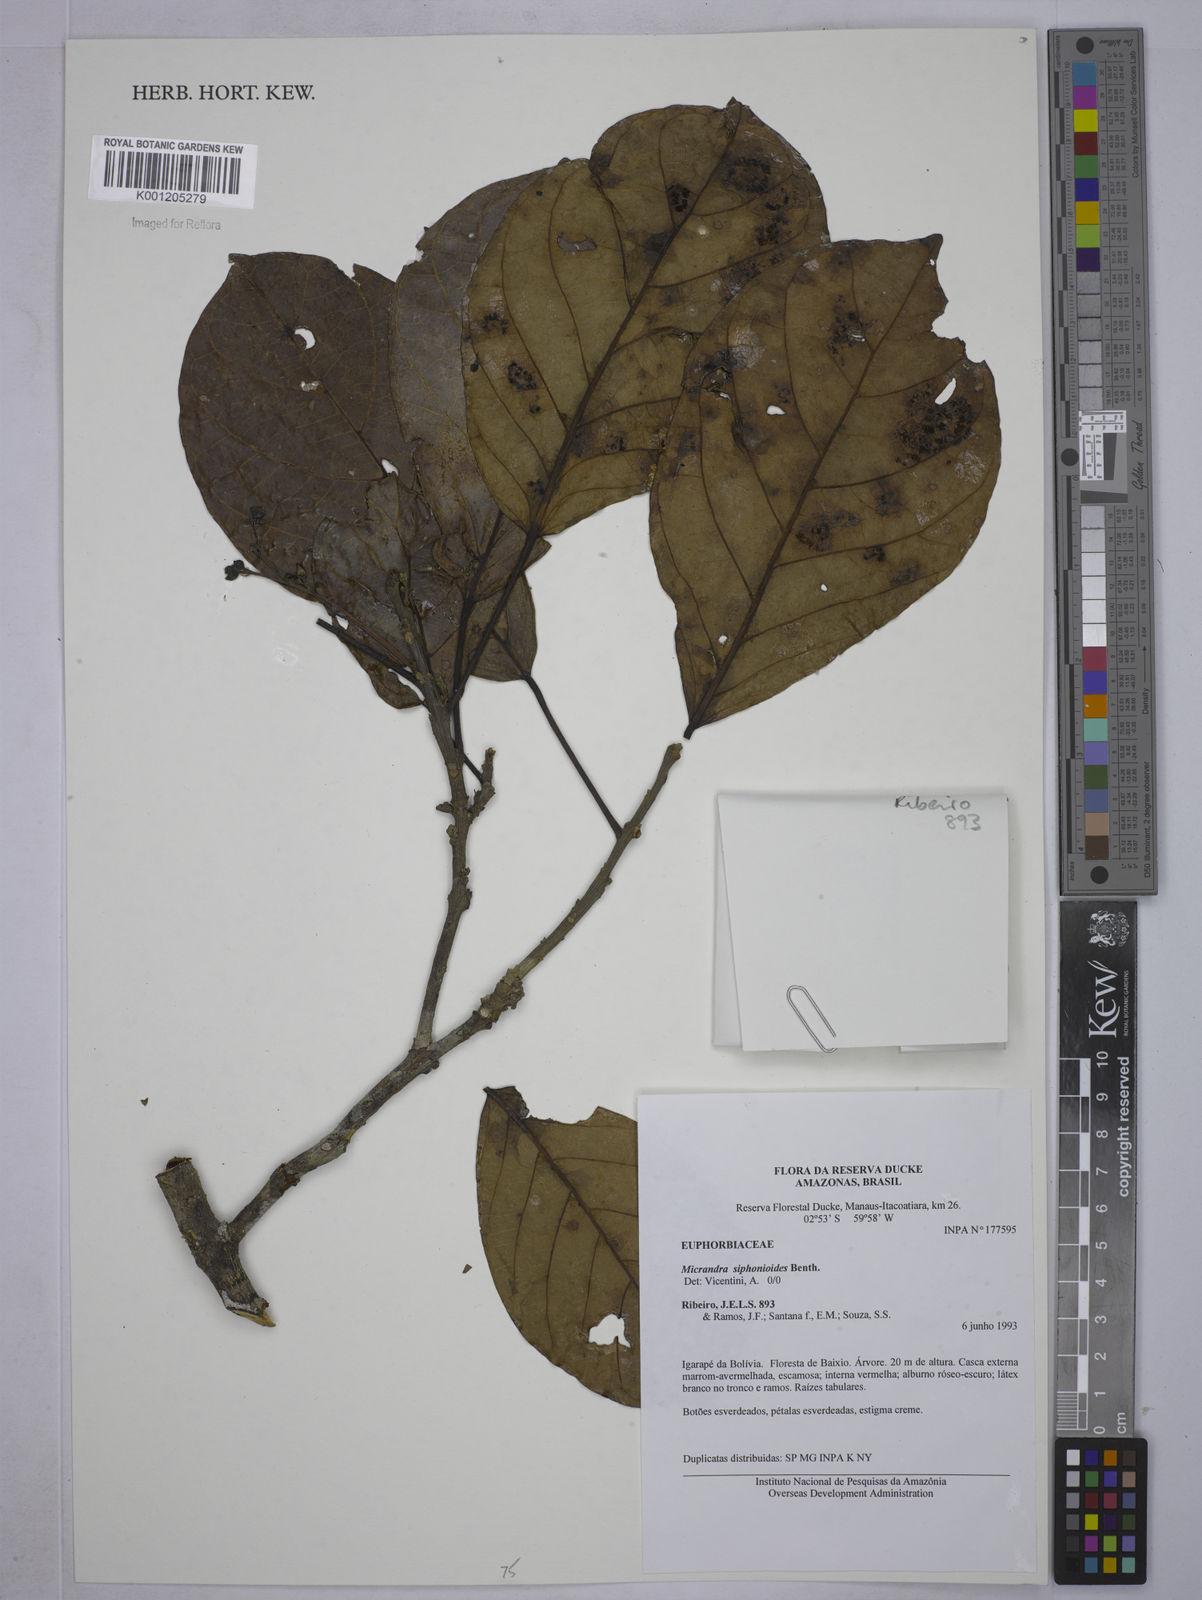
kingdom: Plantae
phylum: Tracheophyta
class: Magnoliopsida
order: Malpighiales
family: Euphorbiaceae
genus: Micrandra
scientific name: Micrandra siphonioides
